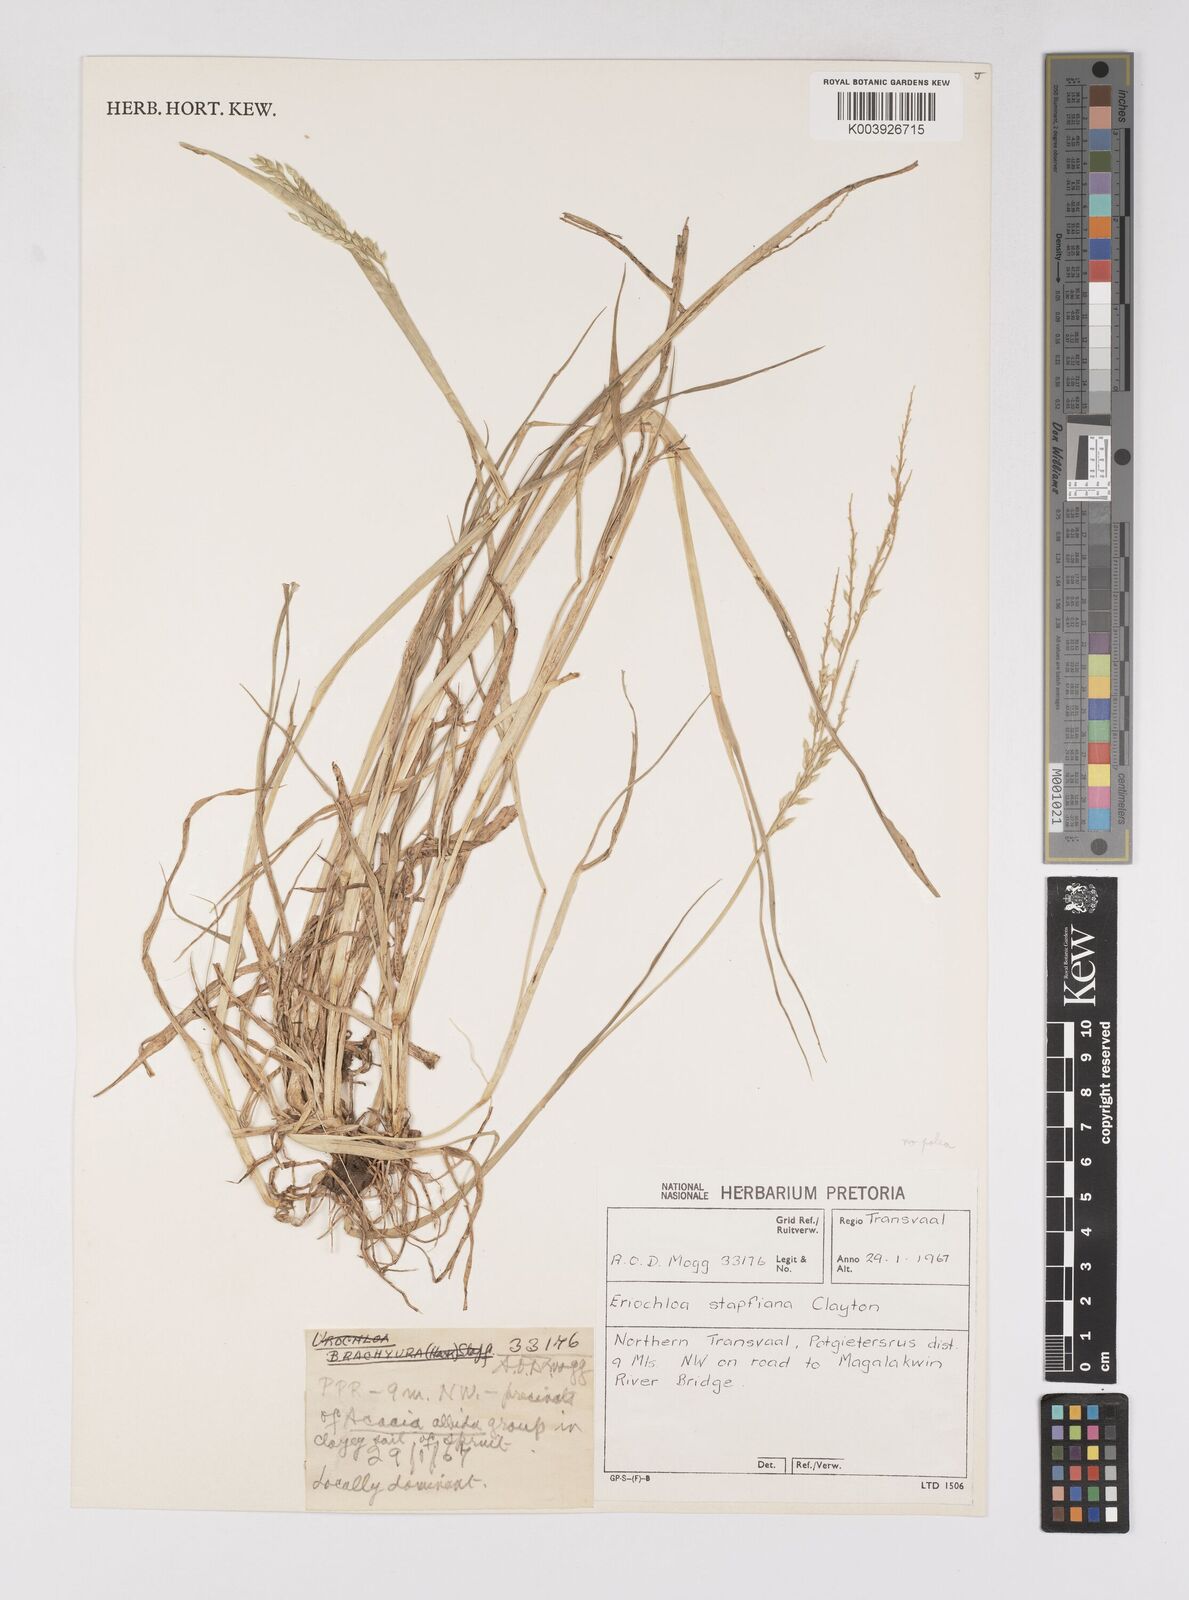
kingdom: Plantae
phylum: Tracheophyta
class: Liliopsida
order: Poales
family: Poaceae
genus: Eriochloa
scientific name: Eriochloa barbatus
